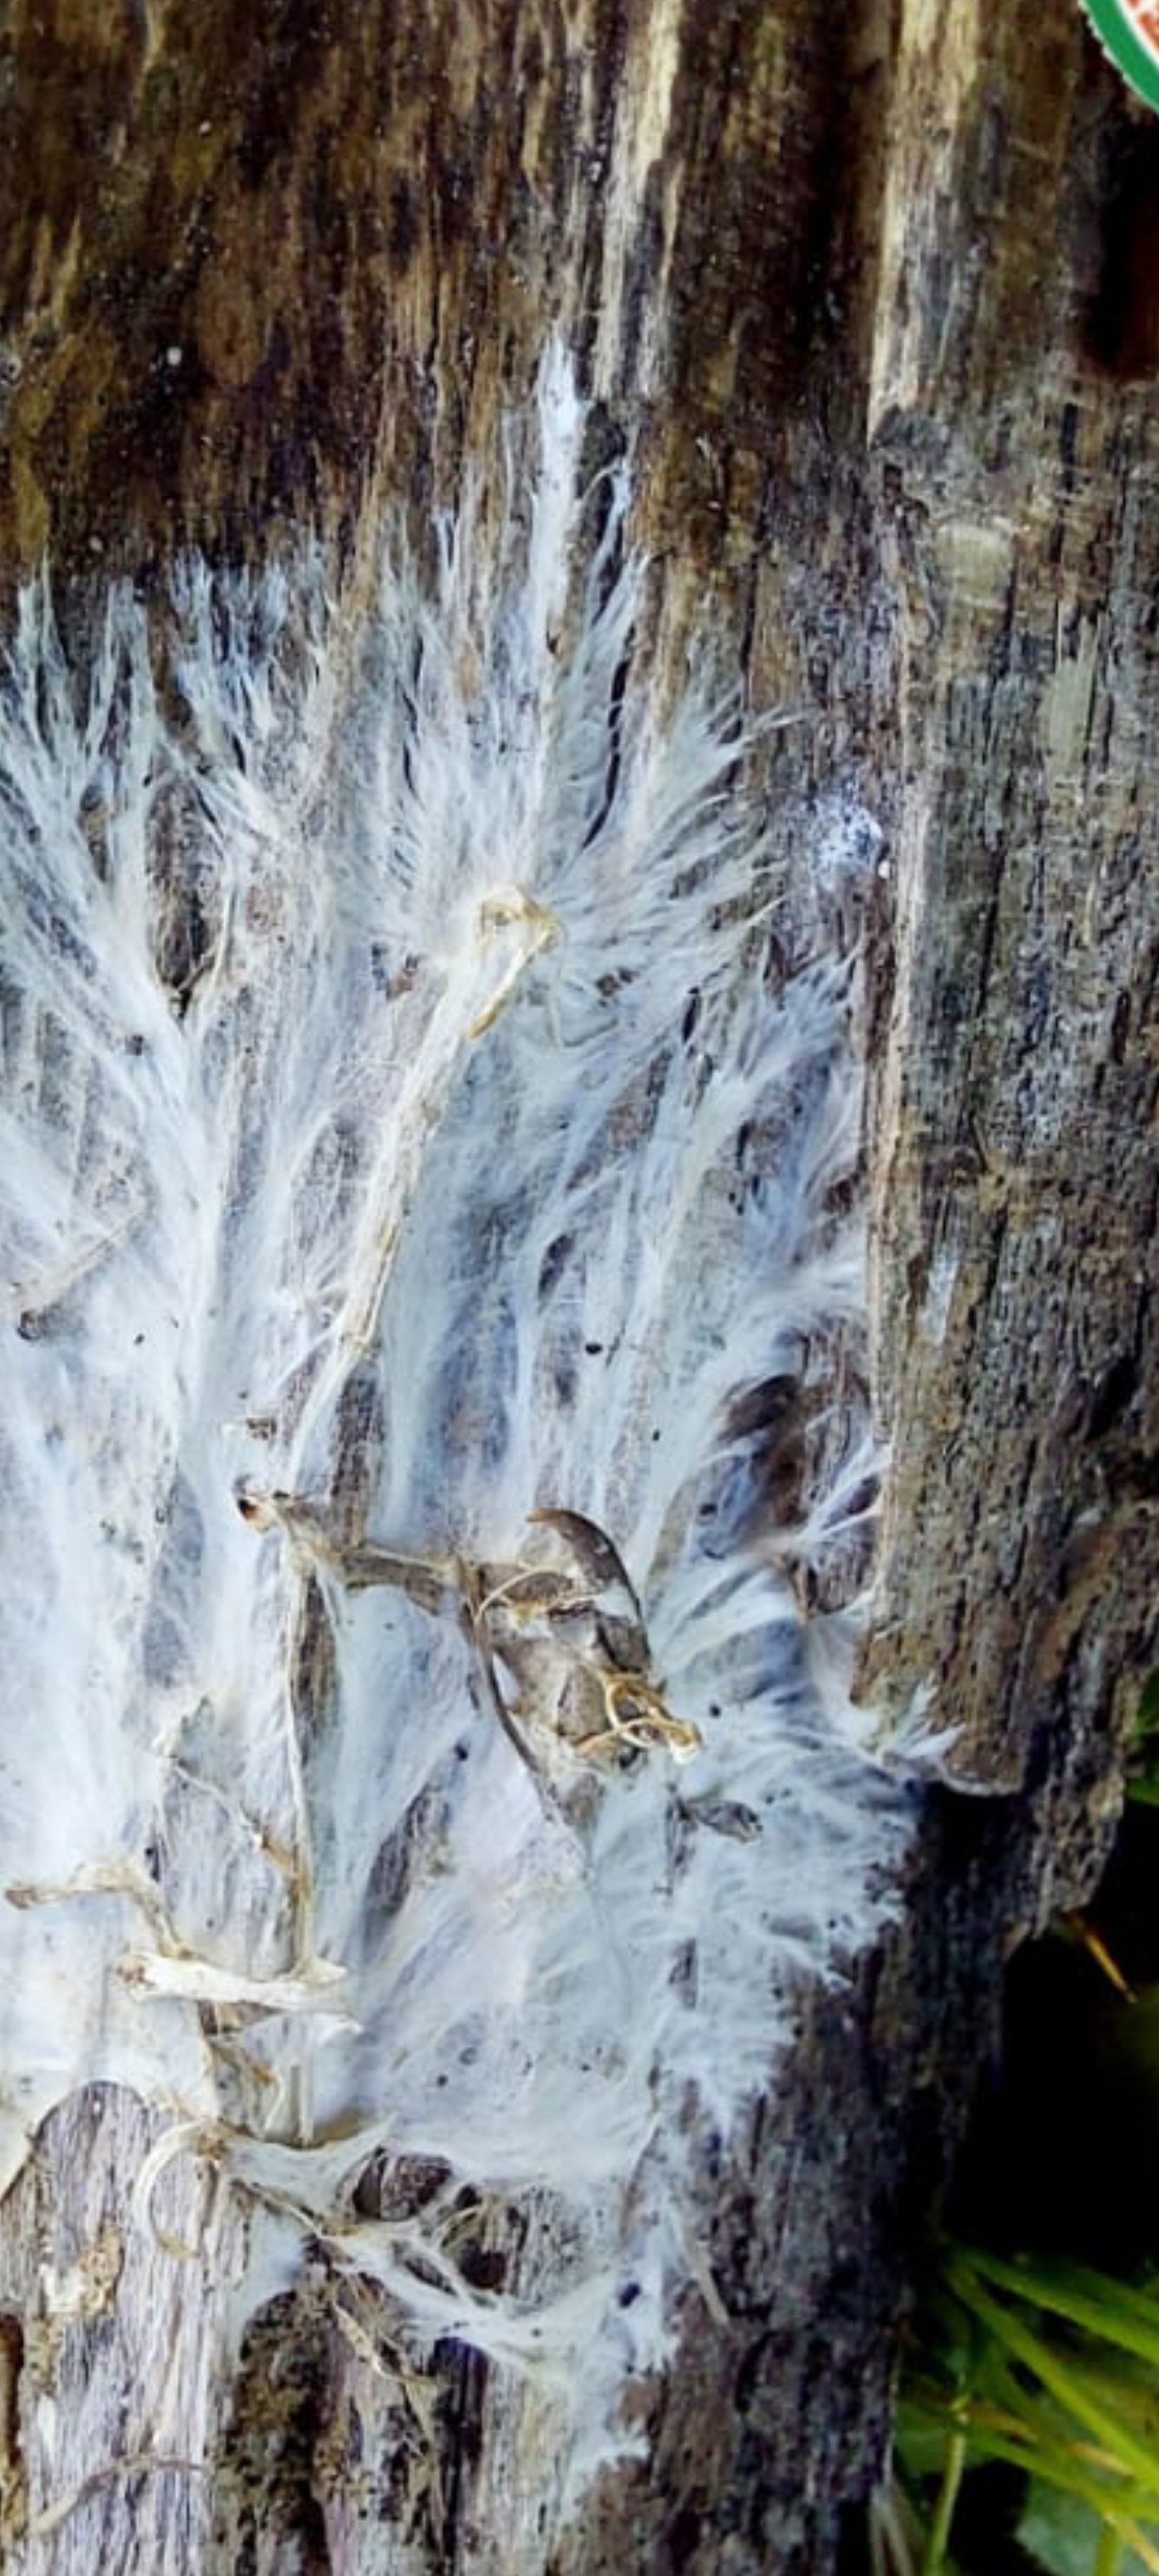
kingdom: Fungi
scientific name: Fungi
